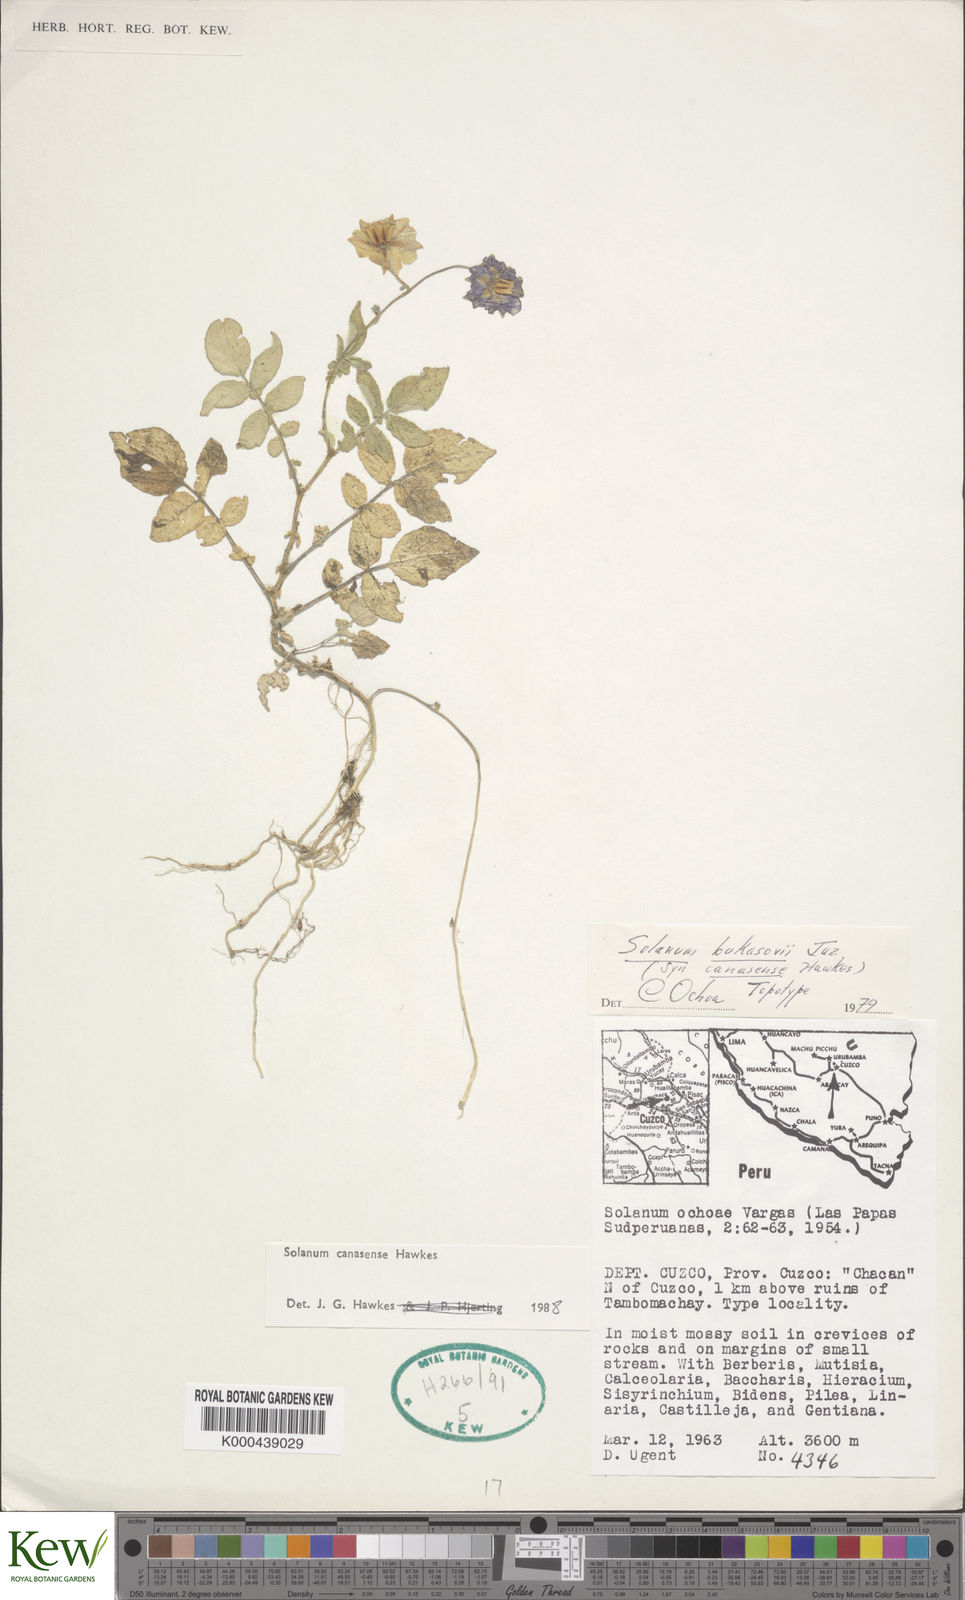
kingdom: Plantae
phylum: Tracheophyta
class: Magnoliopsida
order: Solanales
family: Solanaceae
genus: Solanum
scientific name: Solanum candolleanum
